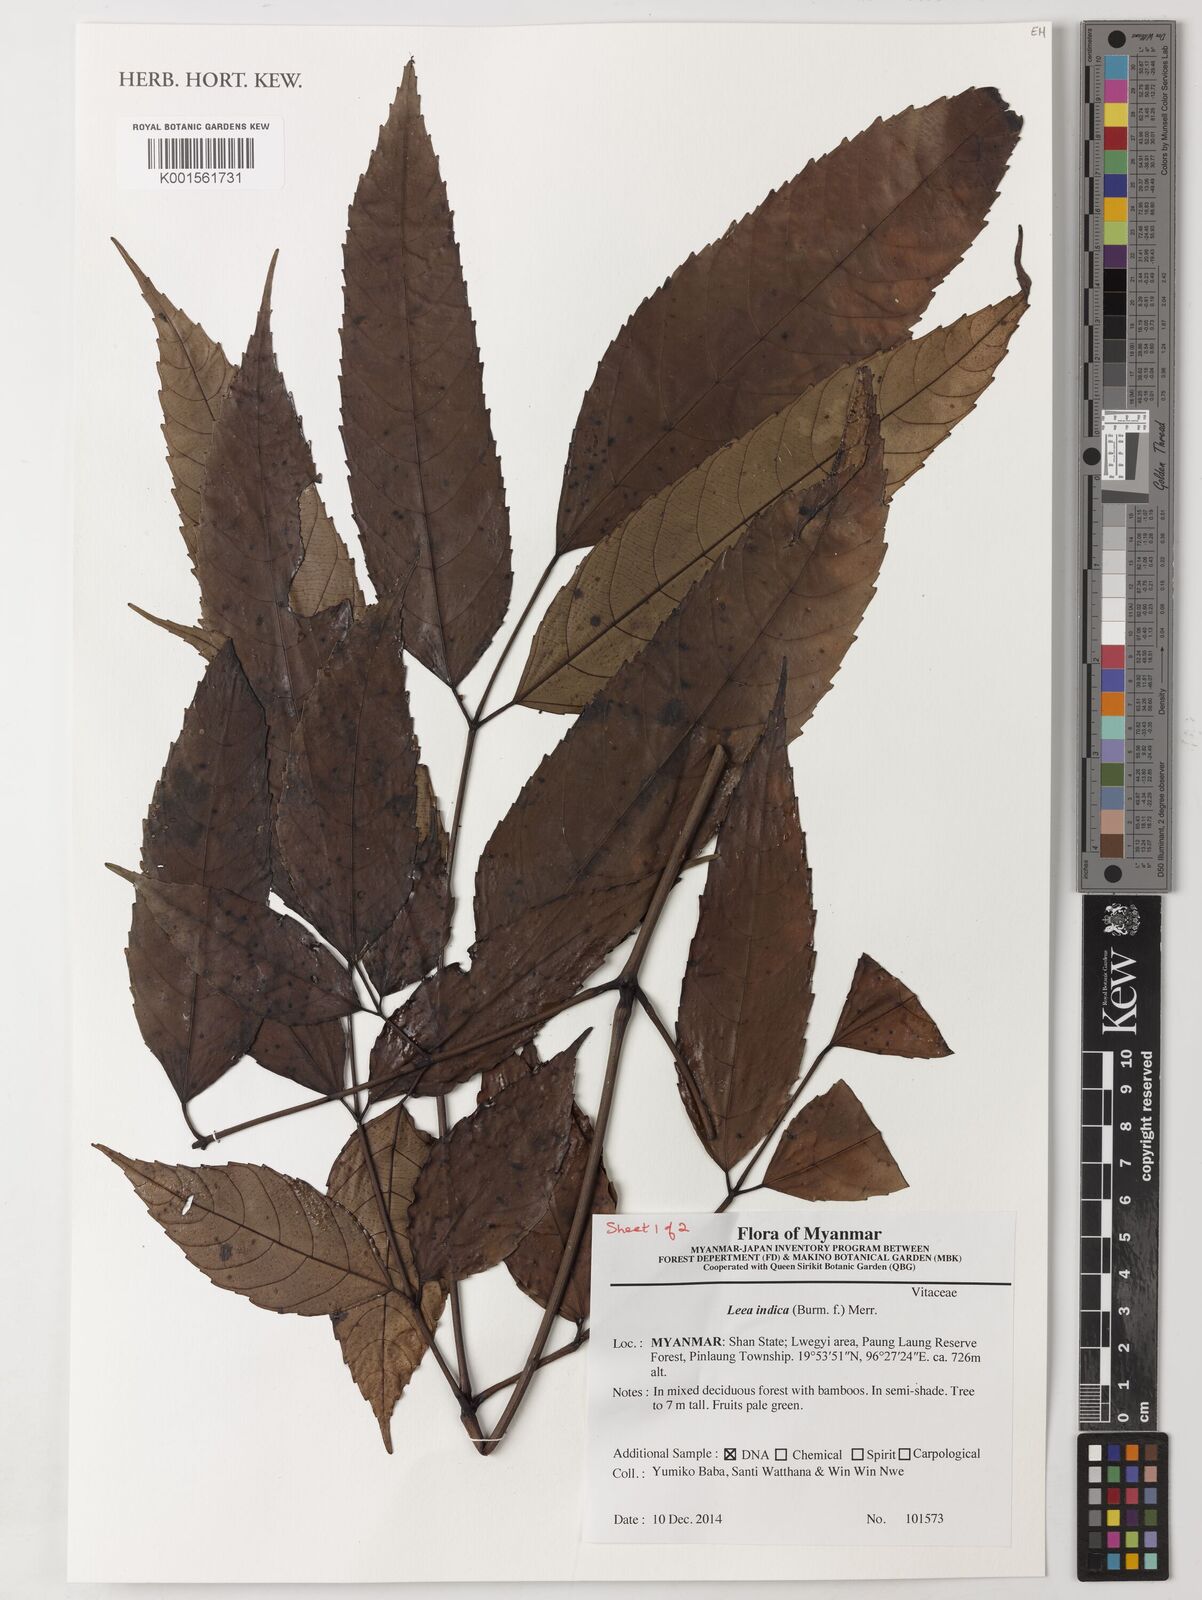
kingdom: Plantae
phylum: Tracheophyta
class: Magnoliopsida
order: Vitales
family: Vitaceae
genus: Leea
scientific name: Leea indica
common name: Bandicoot-berry
